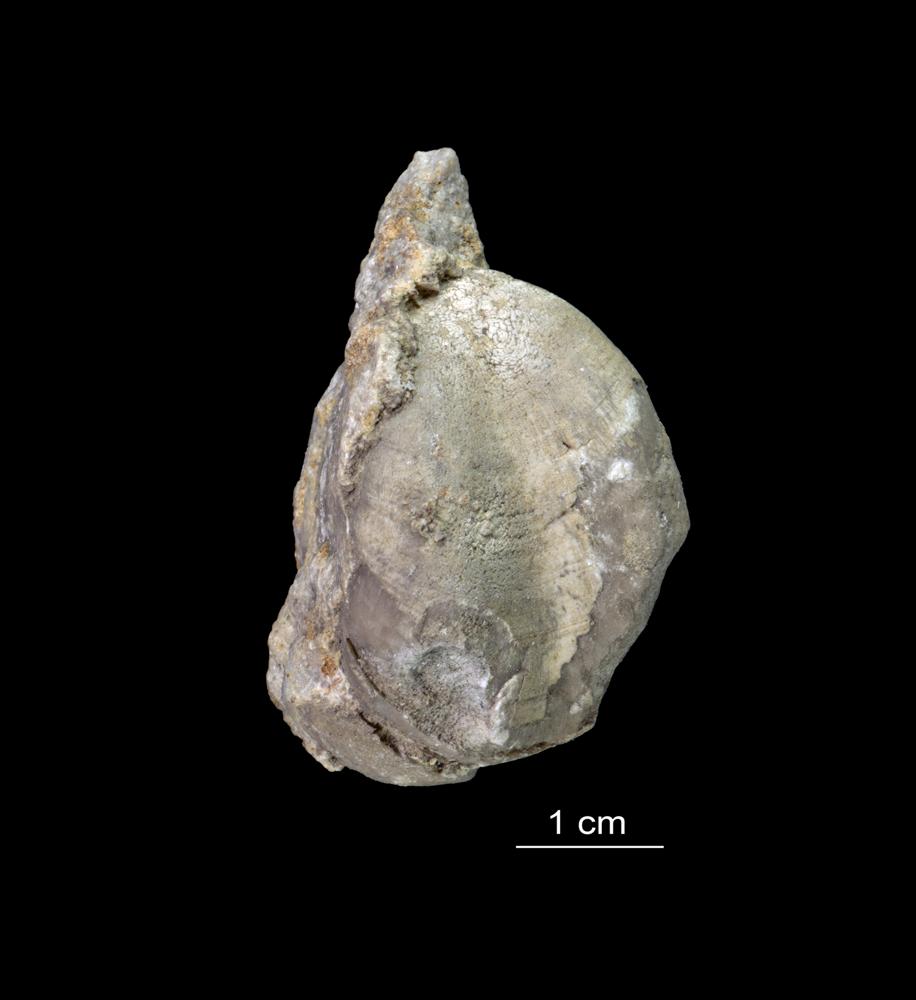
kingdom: Animalia
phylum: Brachiopoda
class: Rhynchonellata
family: Porambonitidae
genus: Porambonites
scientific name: Porambonites baueri
